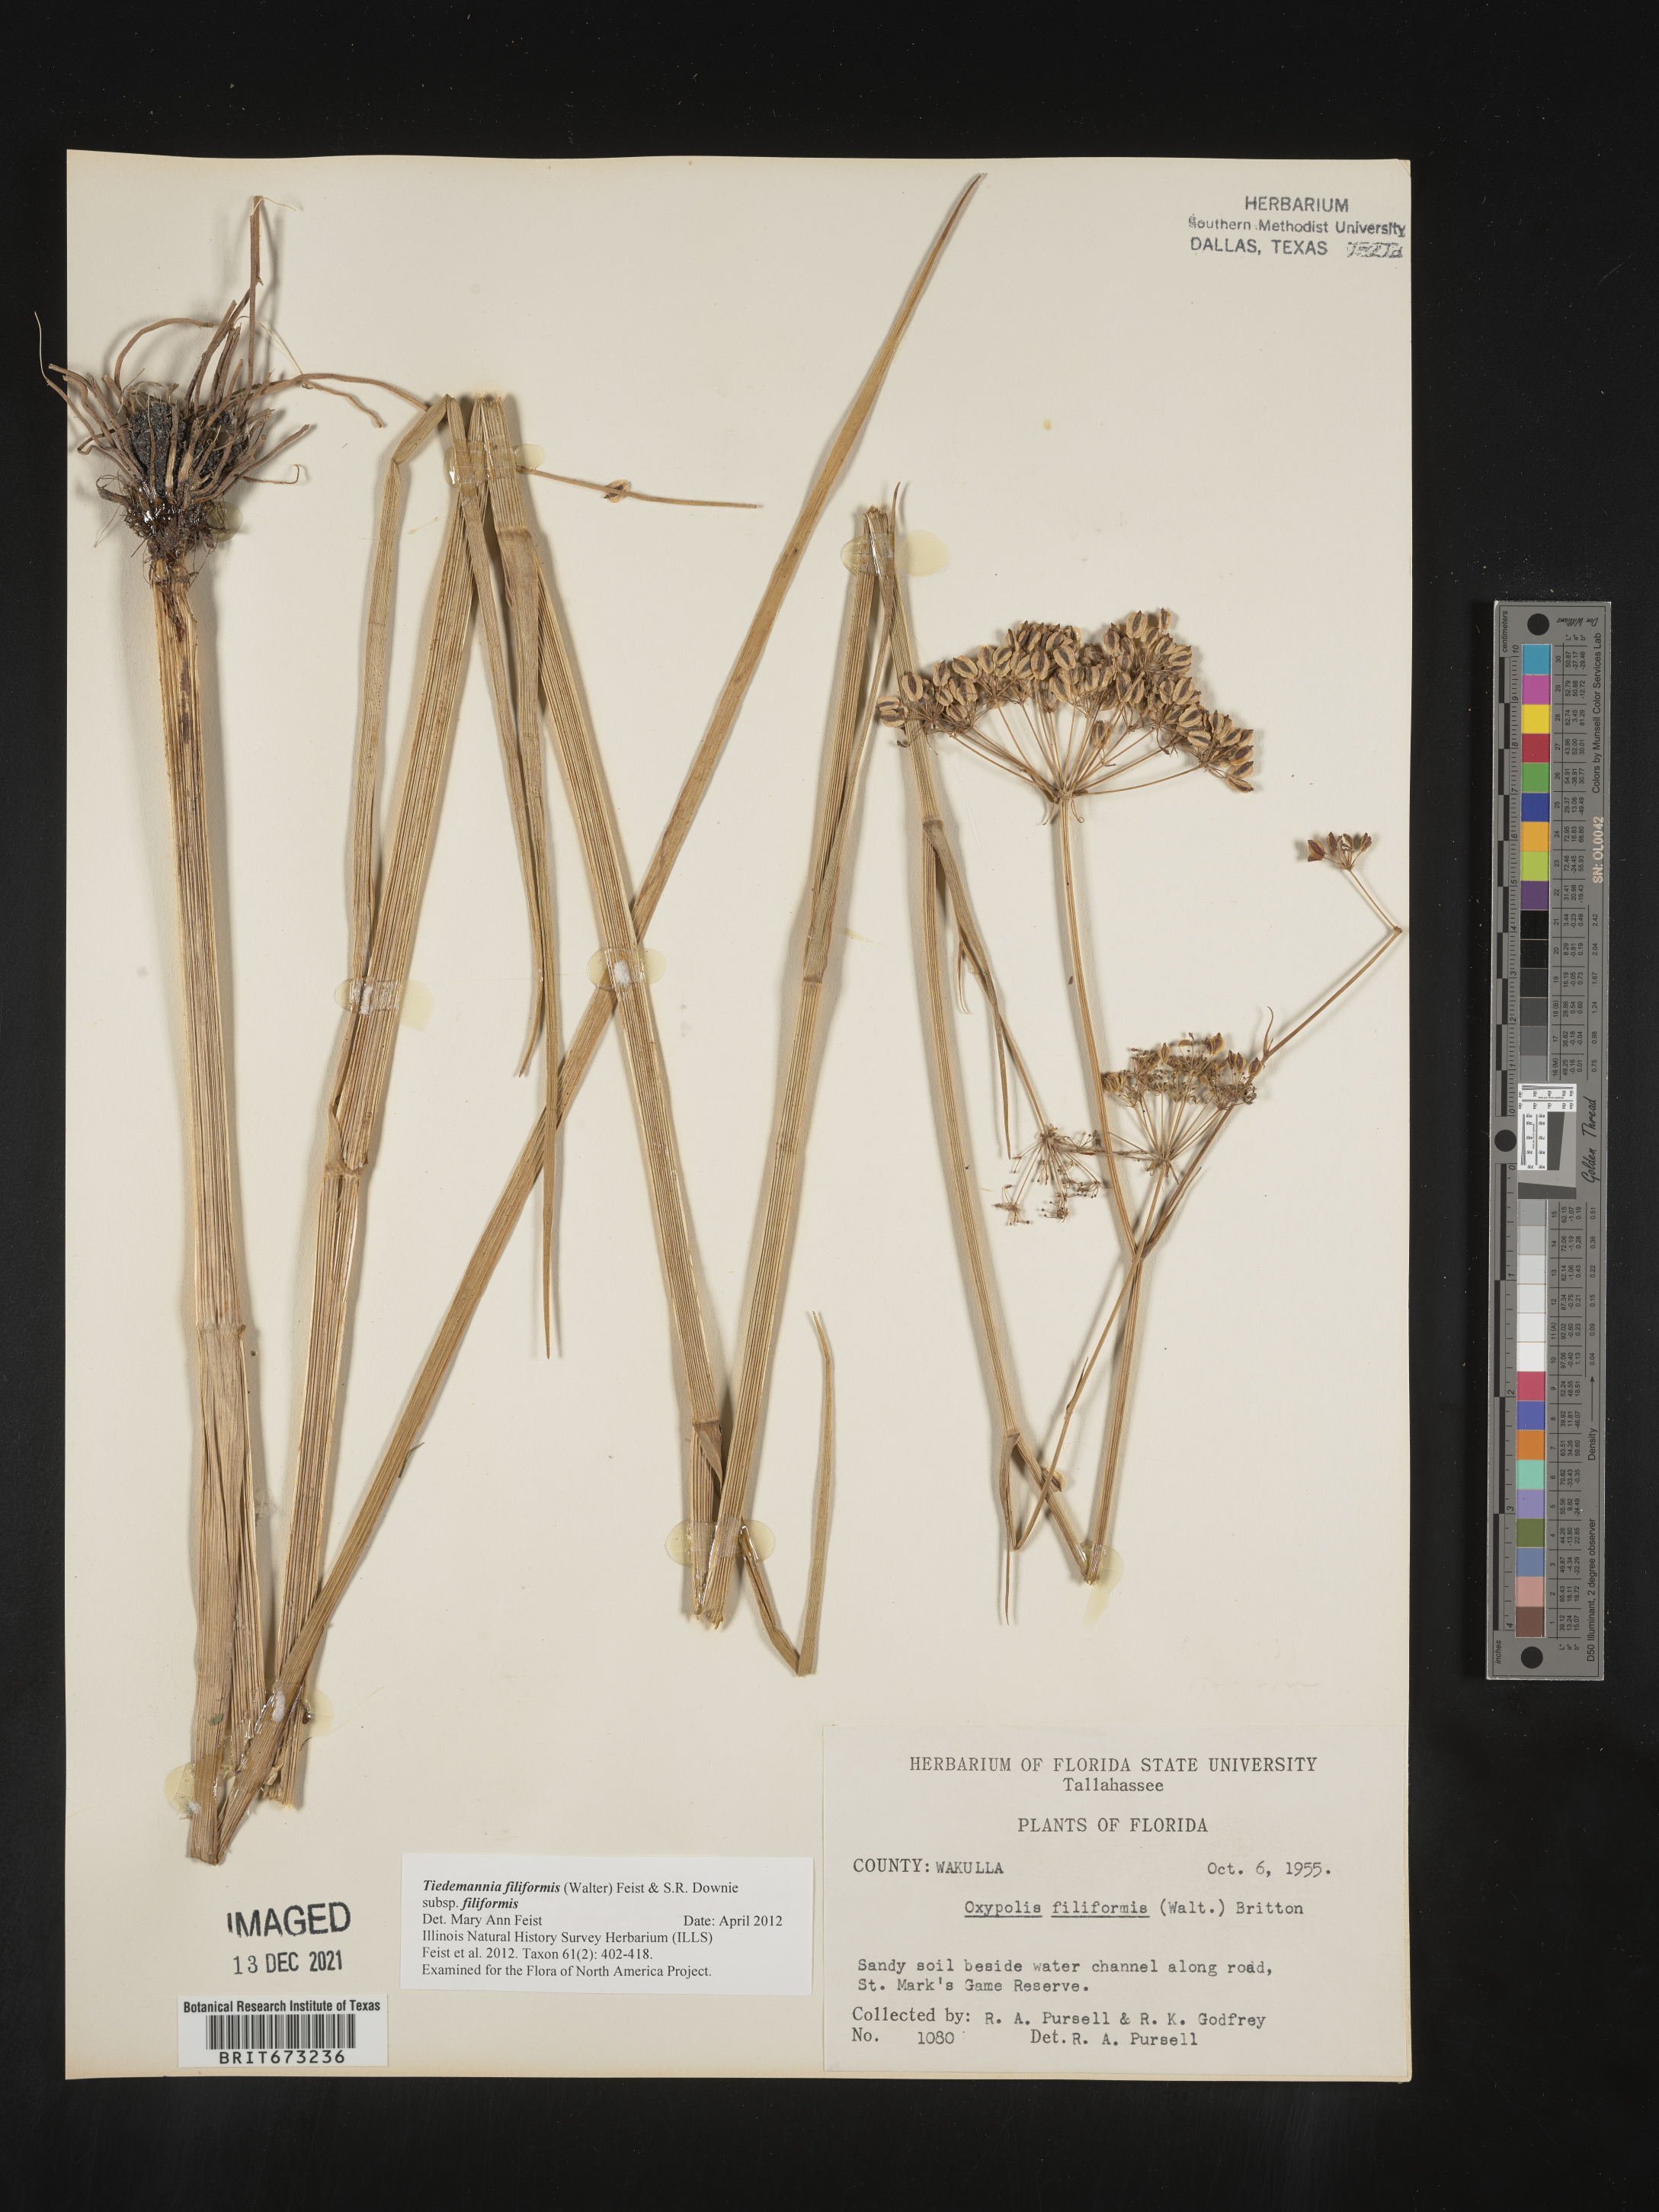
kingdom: Plantae
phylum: Tracheophyta
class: Magnoliopsida
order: Apiales
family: Apiaceae
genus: Tiedemannia
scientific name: Tiedemannia
